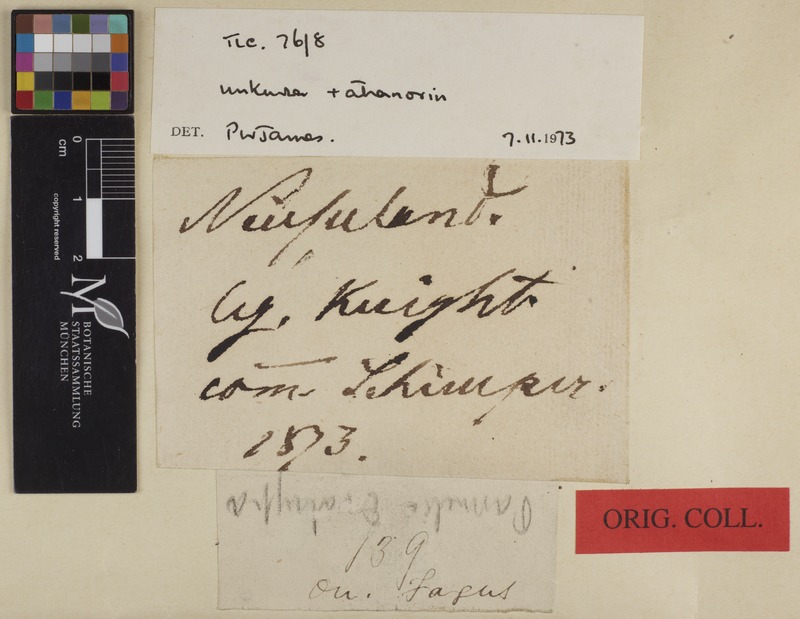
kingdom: Fungi
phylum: Ascomycota
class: Lecanoromycetes
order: Lecanorales
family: Parmeliaceae
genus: Menegazzia
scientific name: Menegazzia
